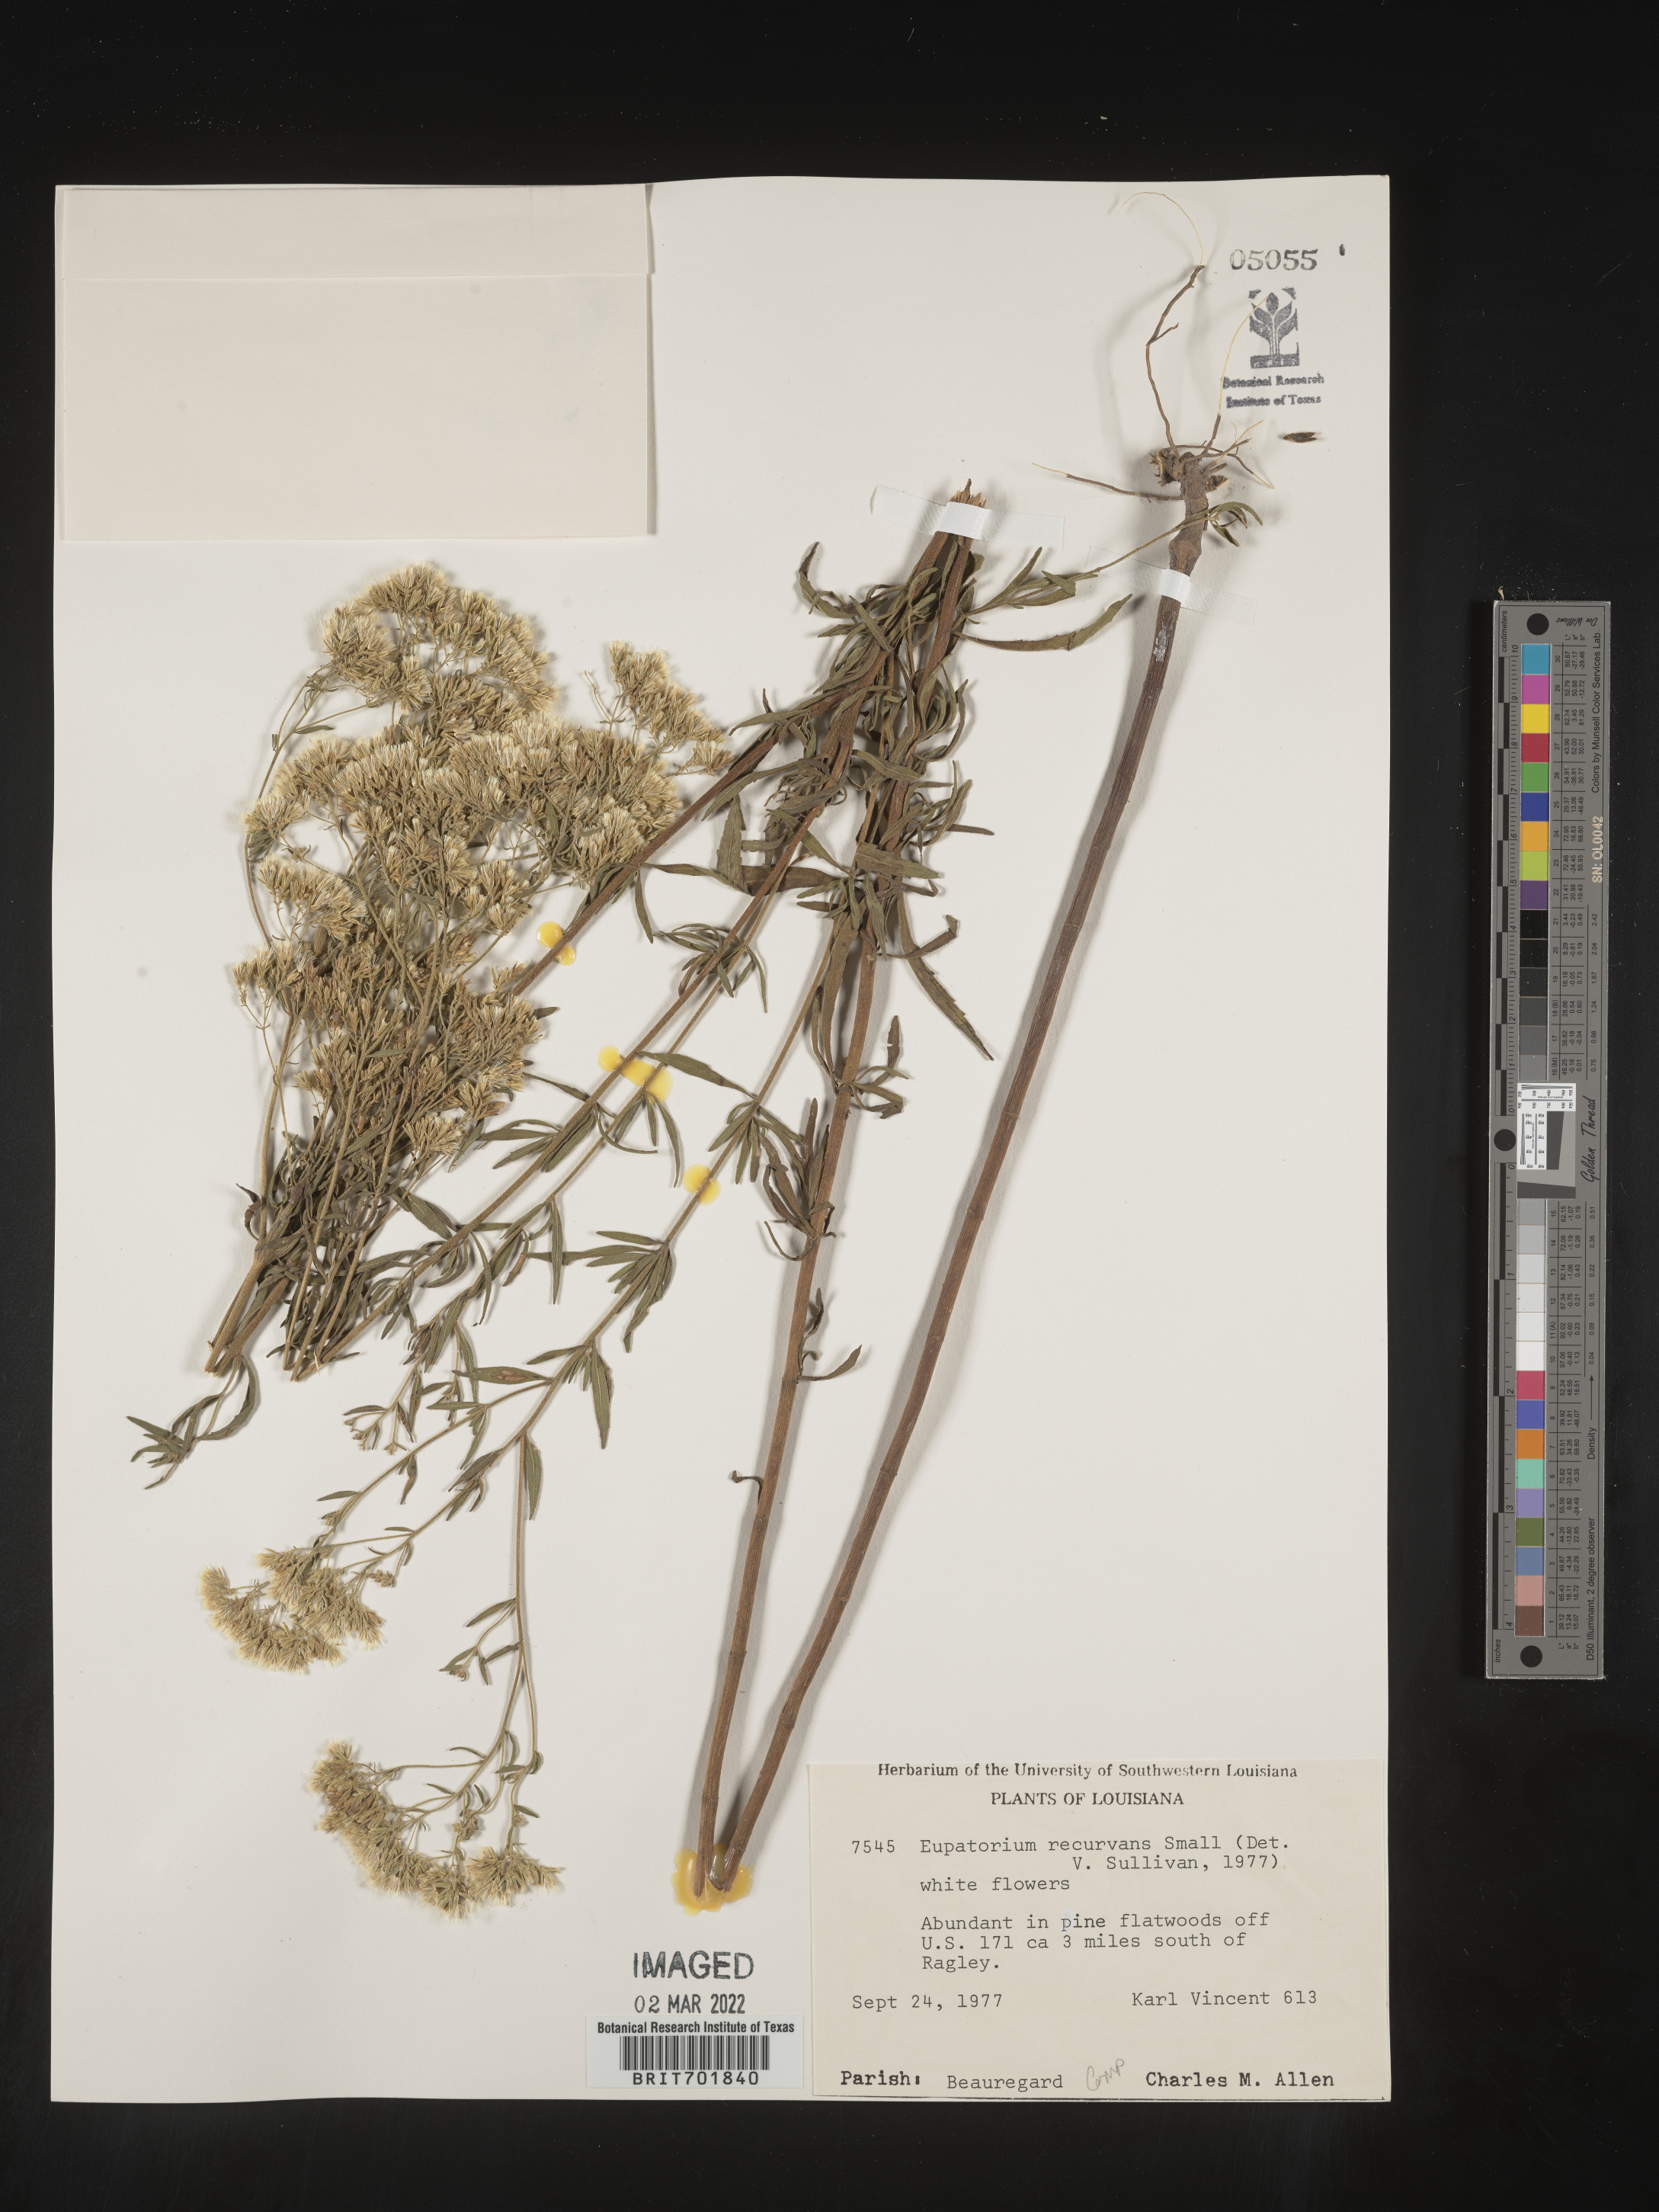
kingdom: Plantae
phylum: Tracheophyta
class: Magnoliopsida
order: Asterales
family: Asteraceae
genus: Eupatorium
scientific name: Eupatorium mohrii
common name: Mohr's thoroughwort
